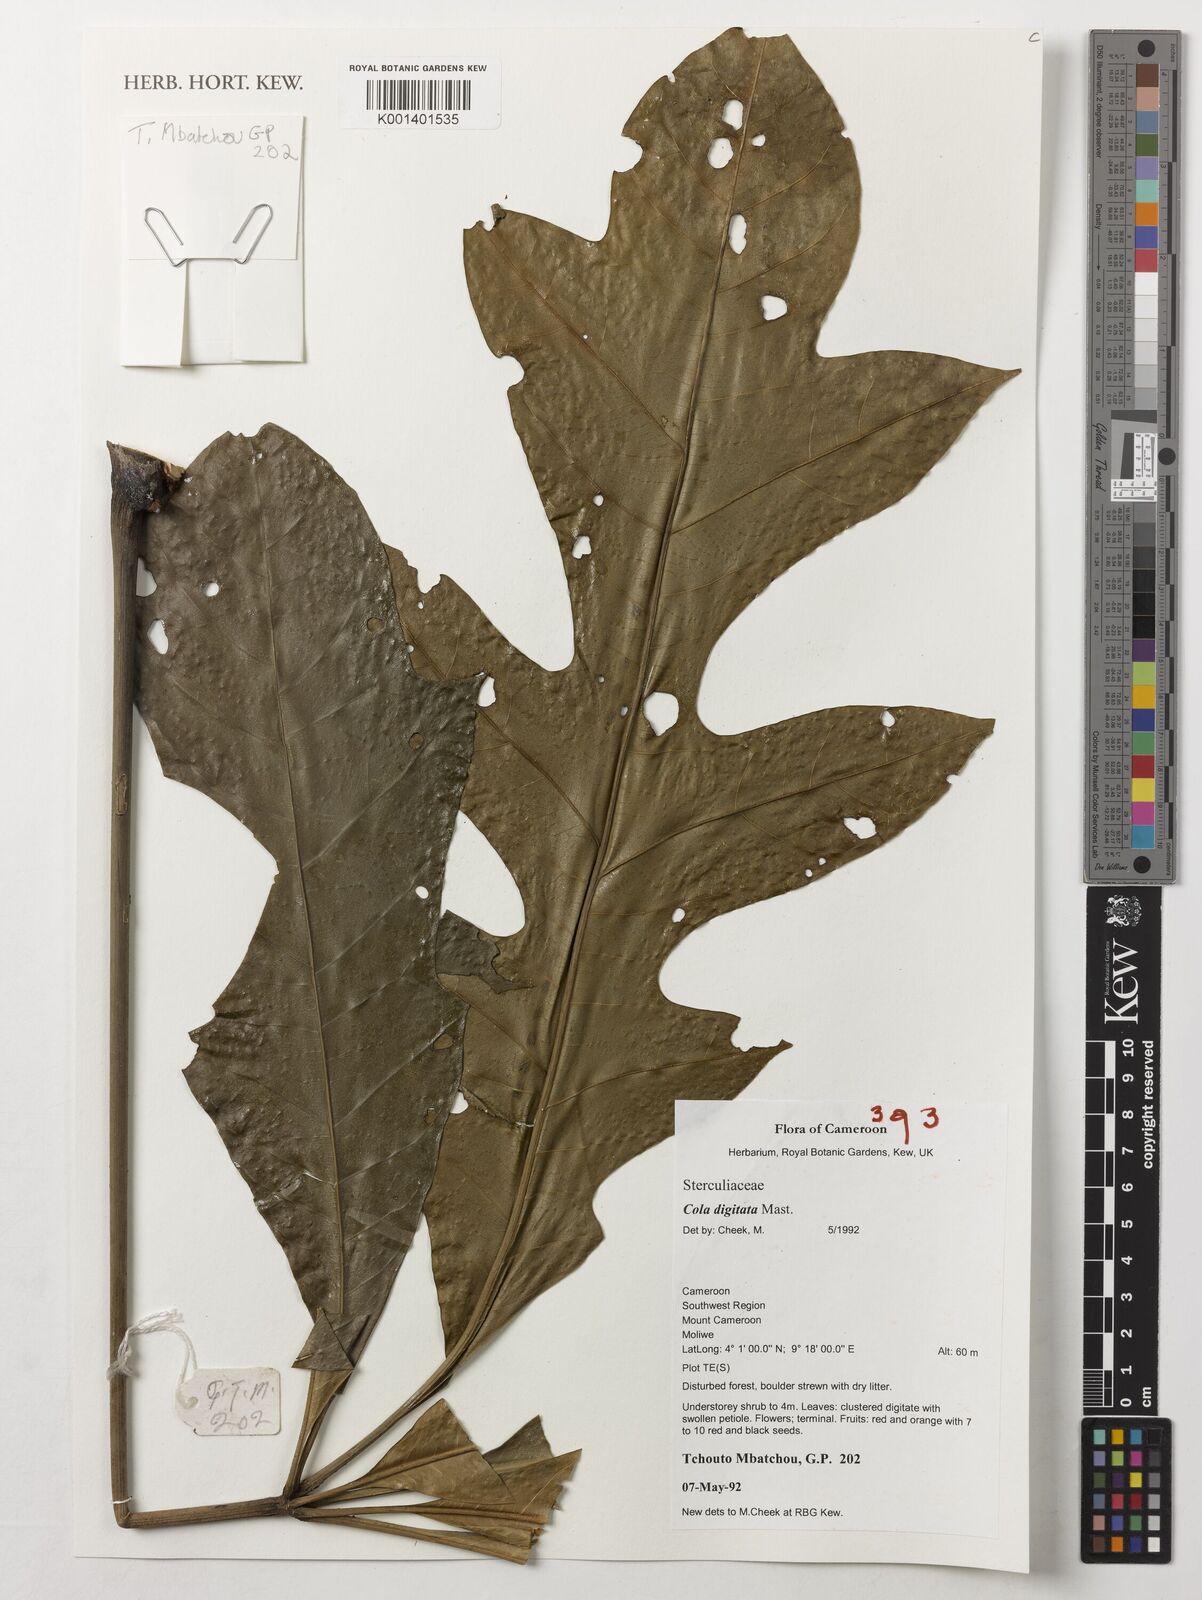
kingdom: Plantae
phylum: Tracheophyta
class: Magnoliopsida
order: Malvales
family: Malvaceae
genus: Cola
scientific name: Cola digitata
